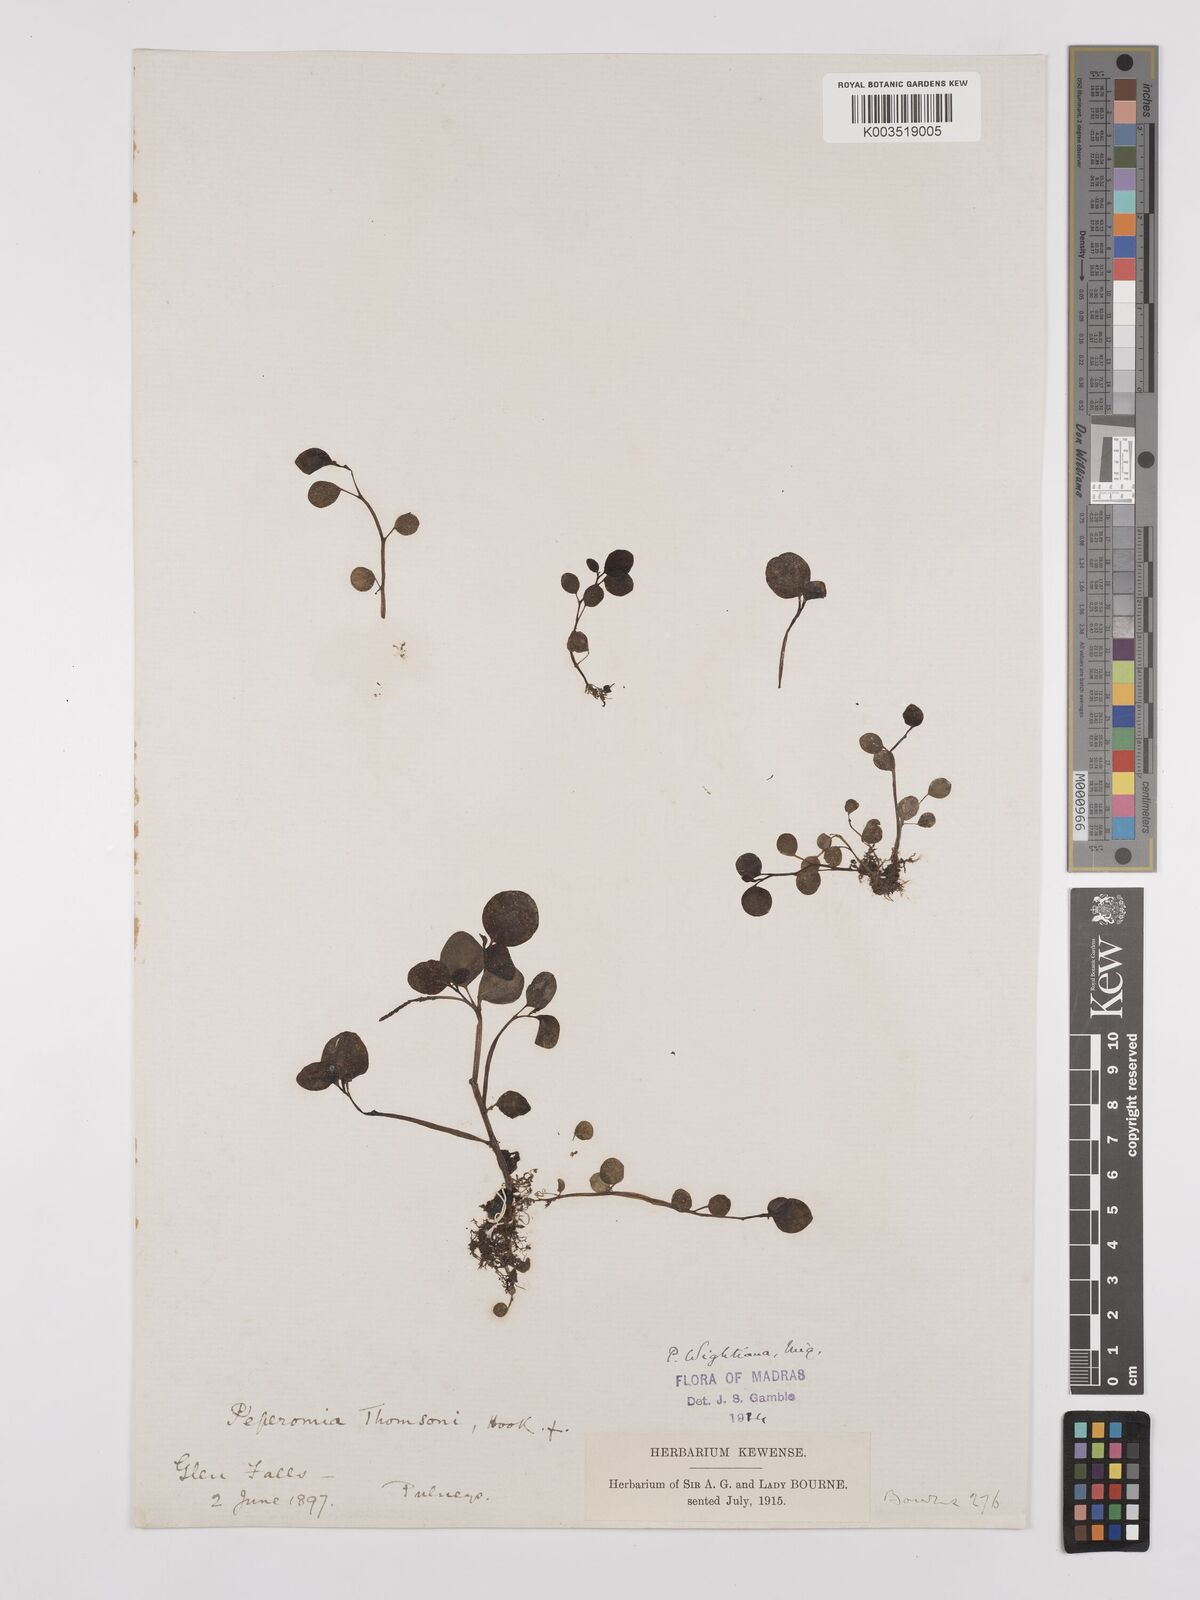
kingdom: Plantae
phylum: Tracheophyta
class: Magnoliopsida
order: Piperales
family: Piperaceae
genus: Peperomia
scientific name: Peperomia wightiana
